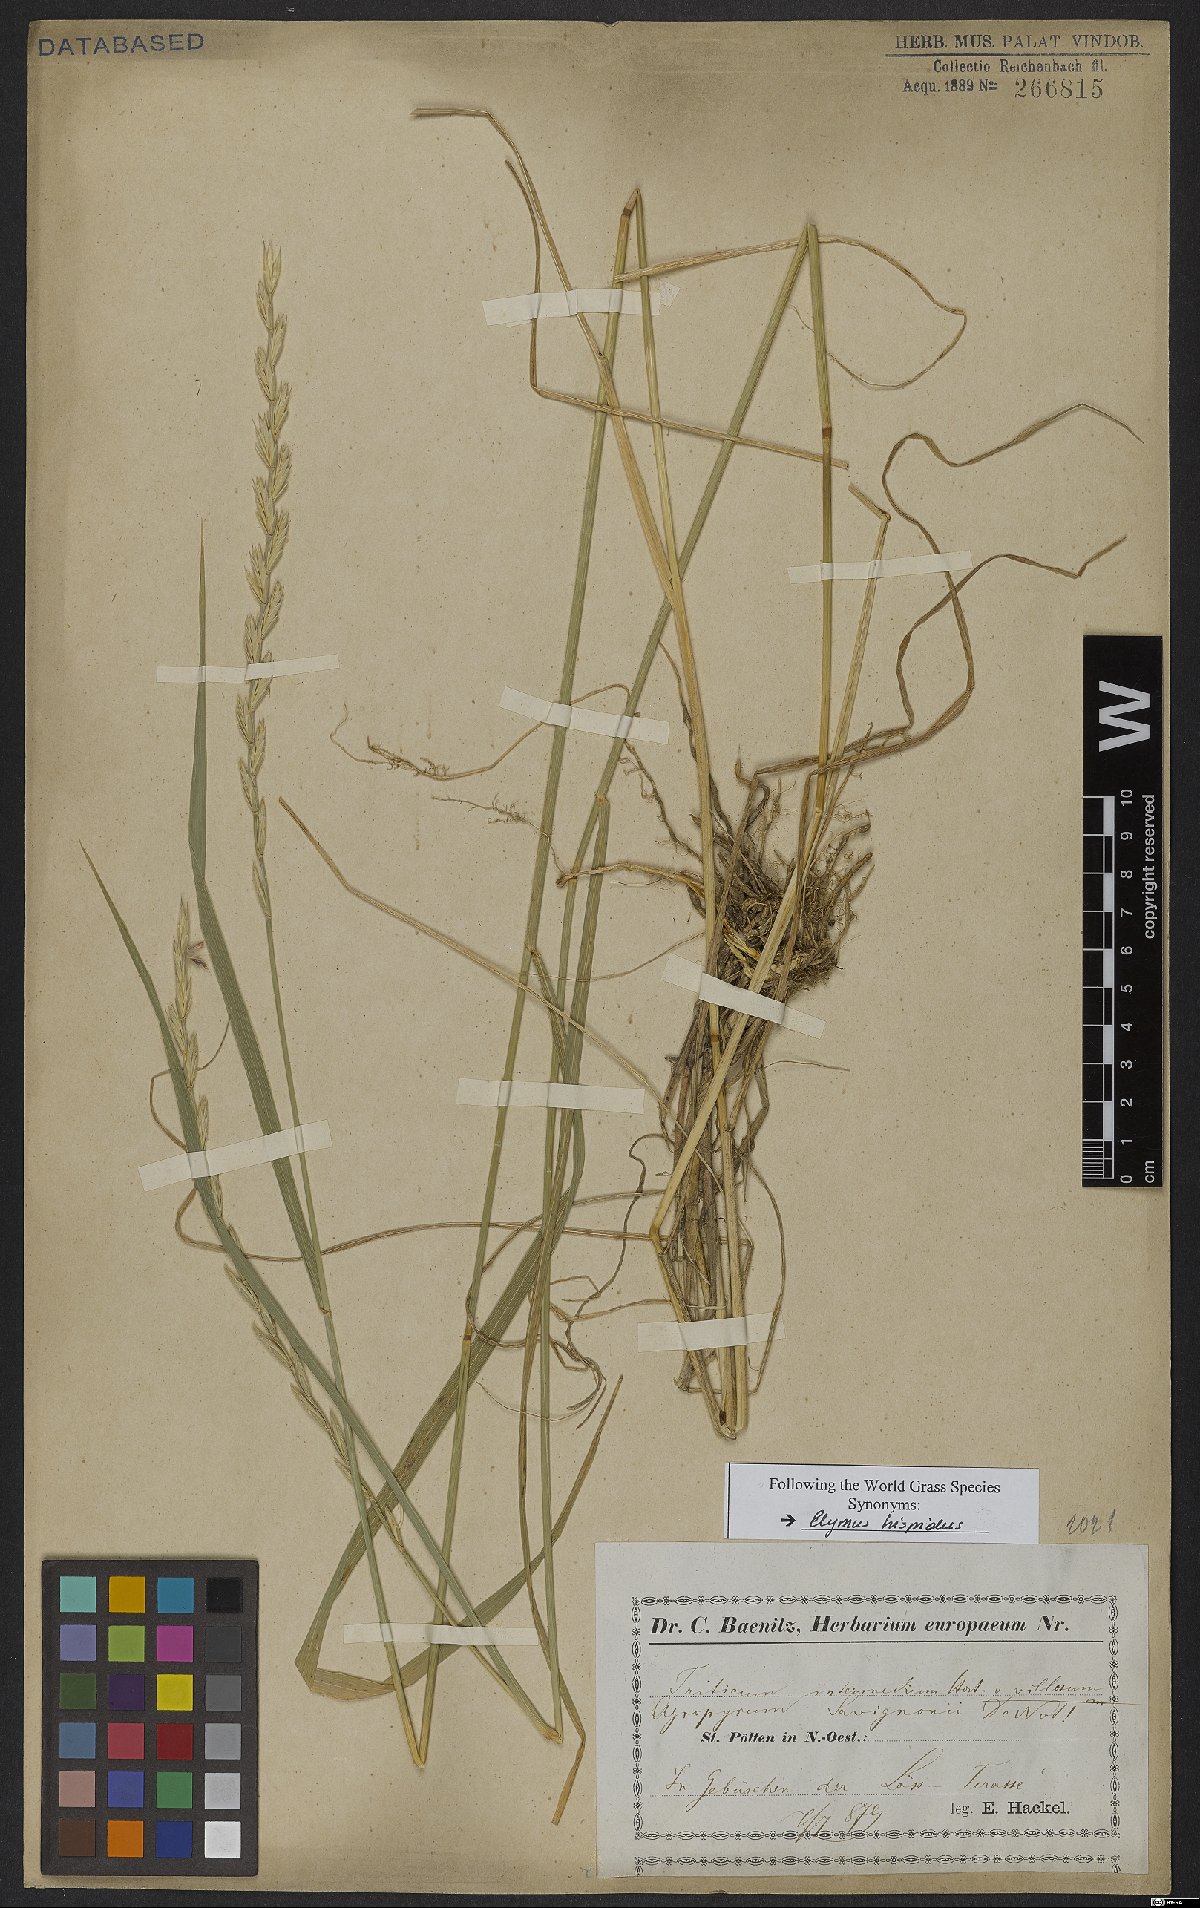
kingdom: Plantae
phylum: Tracheophyta
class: Liliopsida
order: Poales
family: Poaceae
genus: Thinopyrum
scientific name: Thinopyrum intermedium
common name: Intermediate wheatgrass
